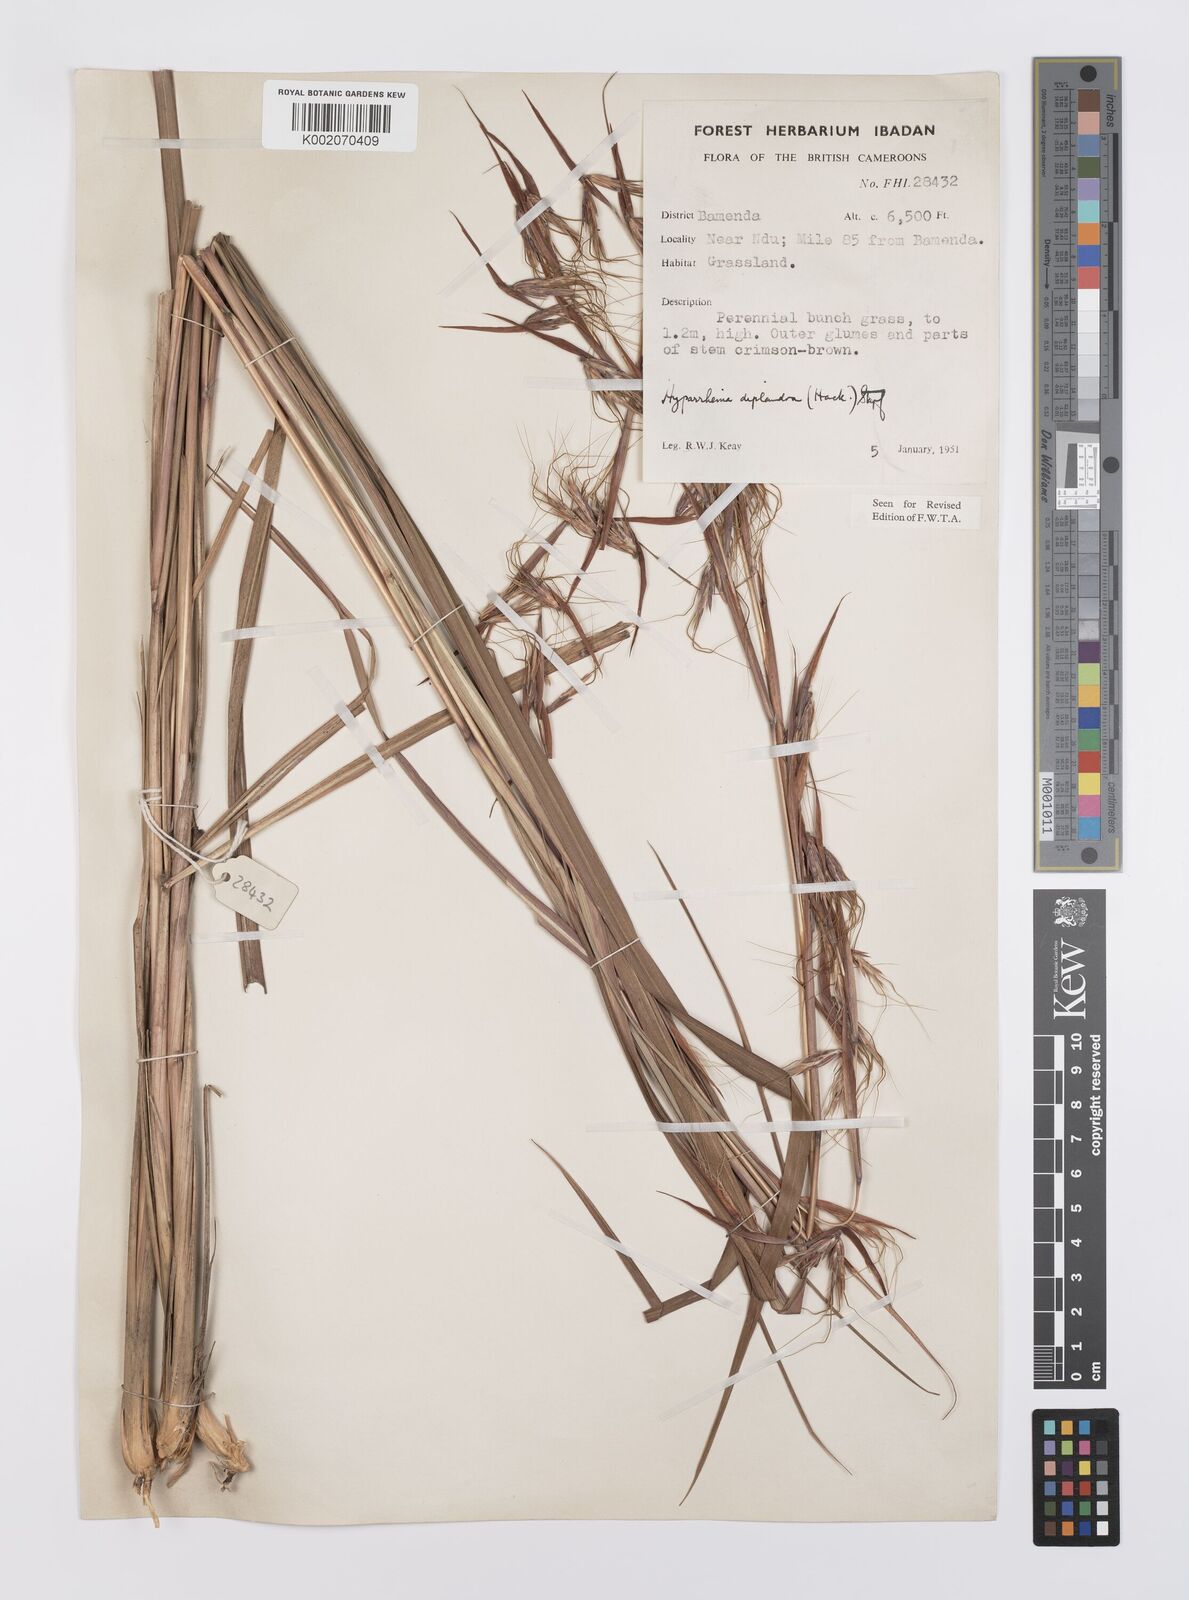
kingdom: Plantae
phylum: Tracheophyta
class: Liliopsida
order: Poales
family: Poaceae
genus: Hyparrhenia
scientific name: Hyparrhenia diplandra
